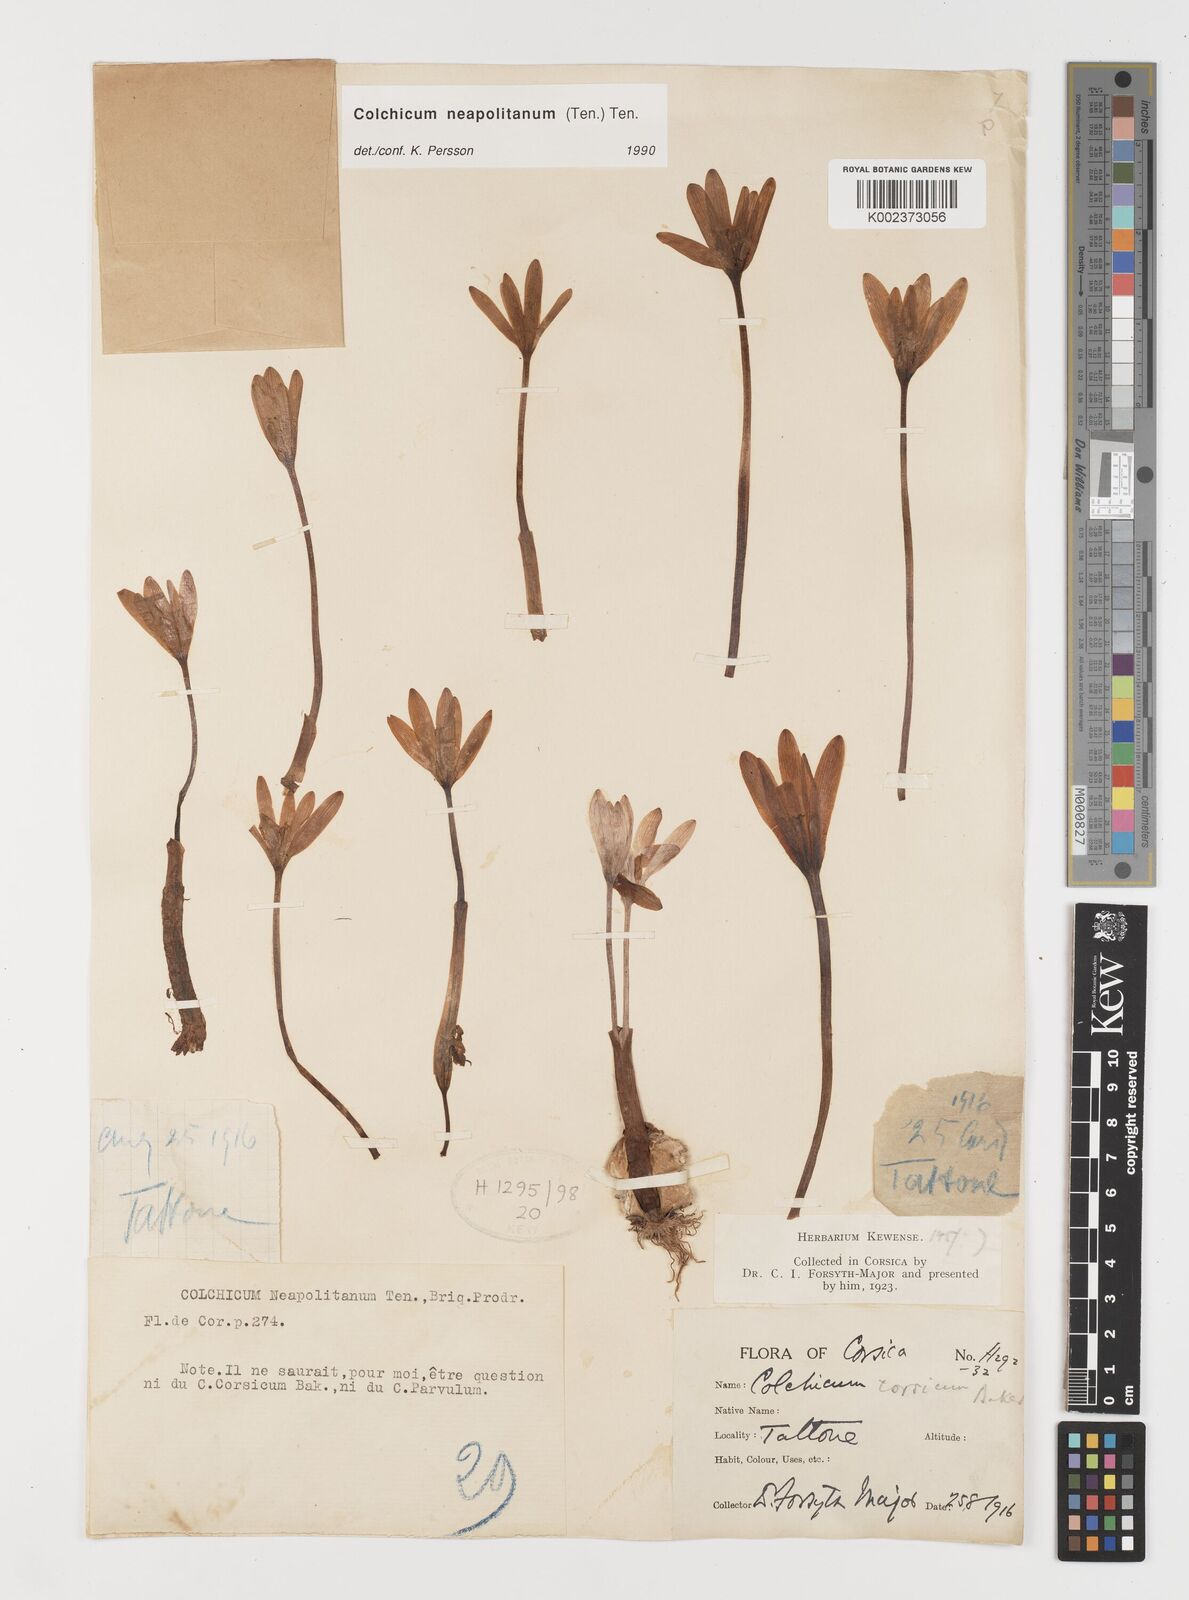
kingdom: Plantae
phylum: Tracheophyta
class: Liliopsida
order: Liliales
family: Colchicaceae
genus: Colchicum
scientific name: Colchicum neapolitanum
